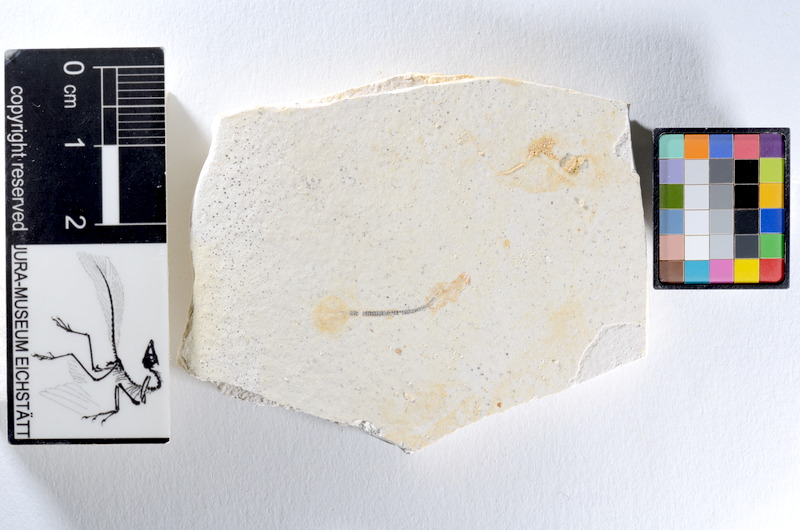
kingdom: Animalia
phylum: Chordata
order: Salmoniformes
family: Orthogonikleithridae
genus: Orthogonikleithrus
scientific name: Orthogonikleithrus hoelli
